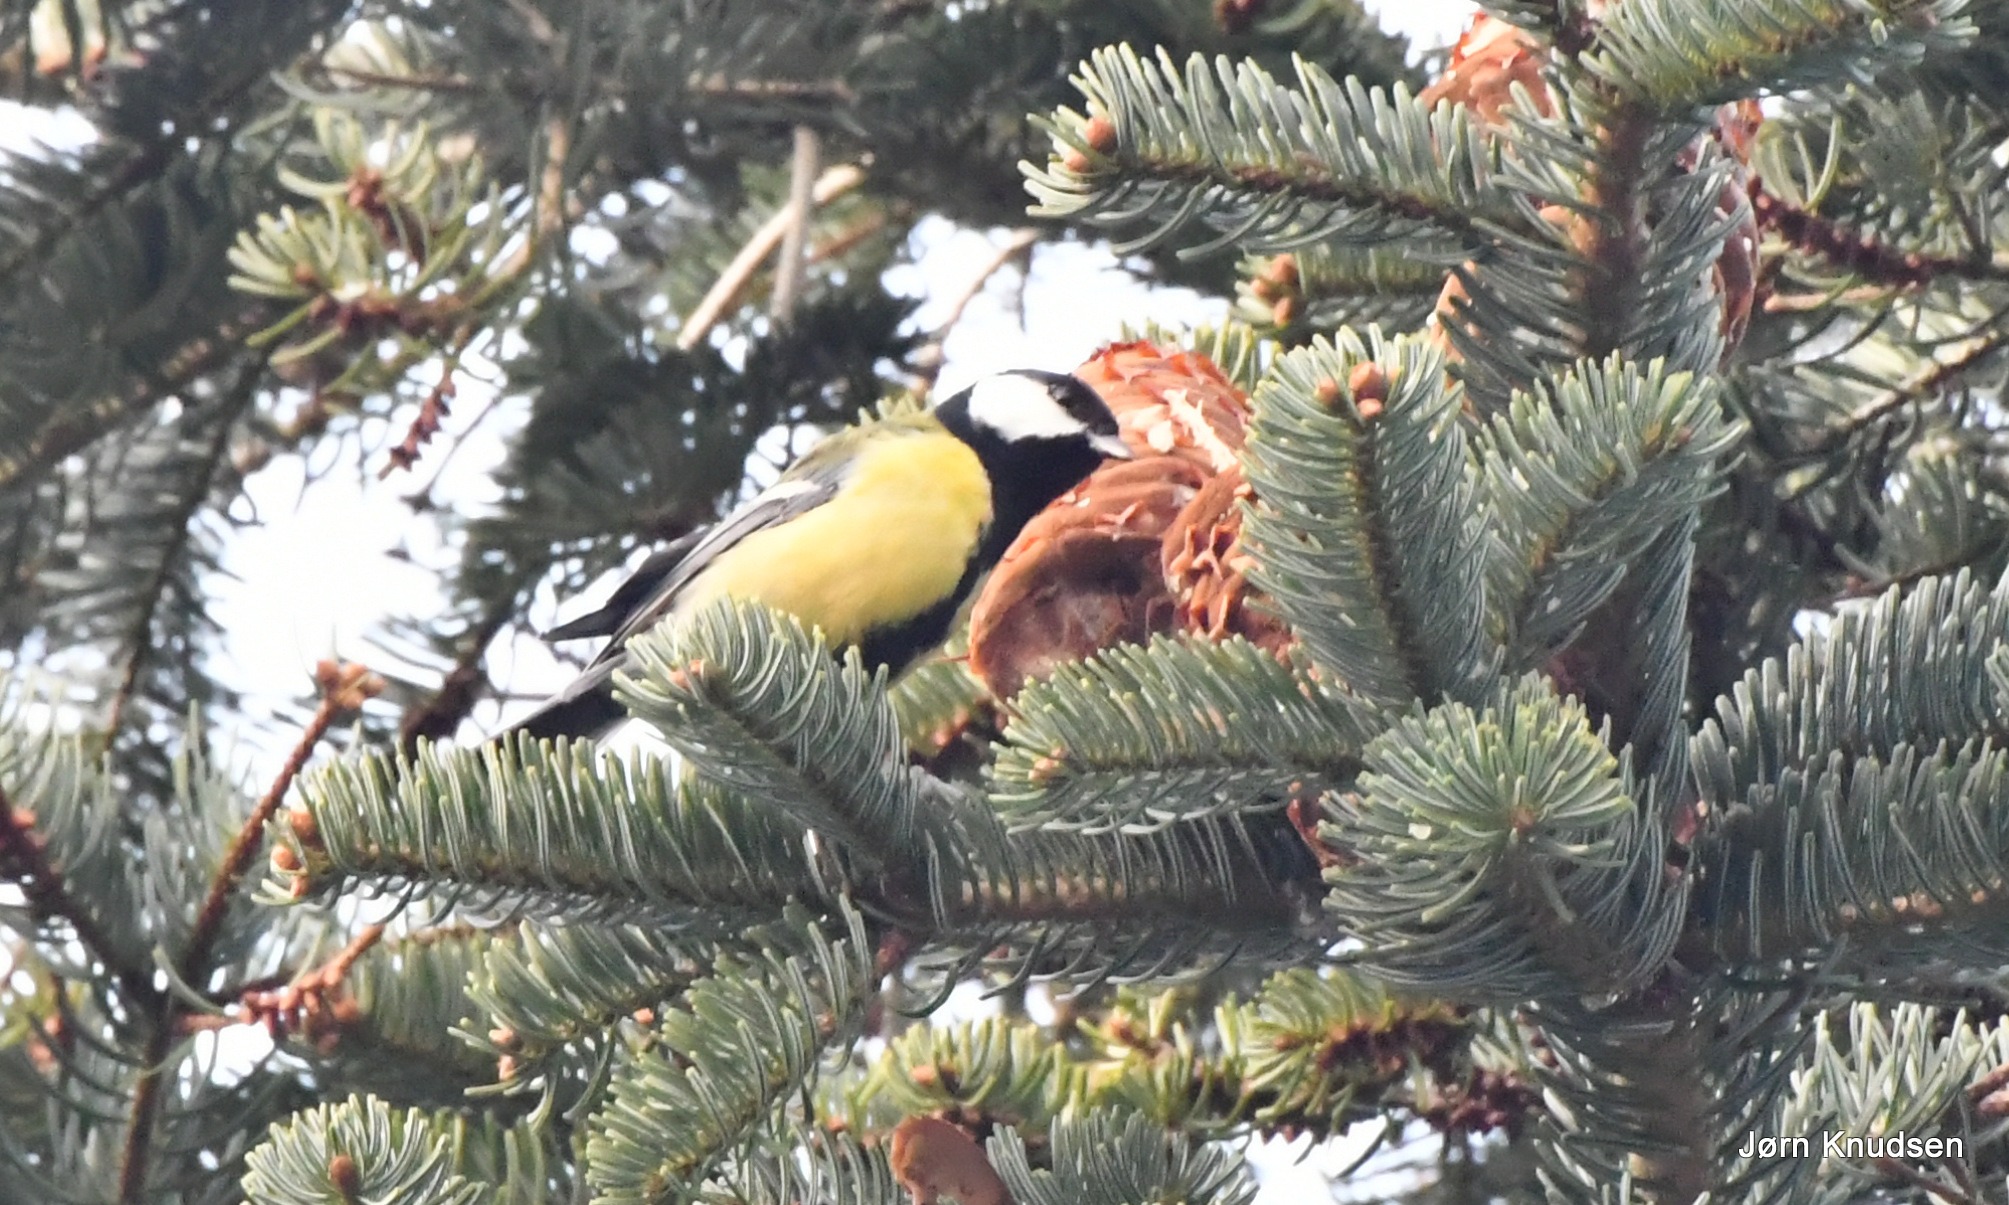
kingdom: Animalia
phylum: Chordata
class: Aves
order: Passeriformes
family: Paridae
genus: Parus
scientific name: Parus major
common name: Musvit
